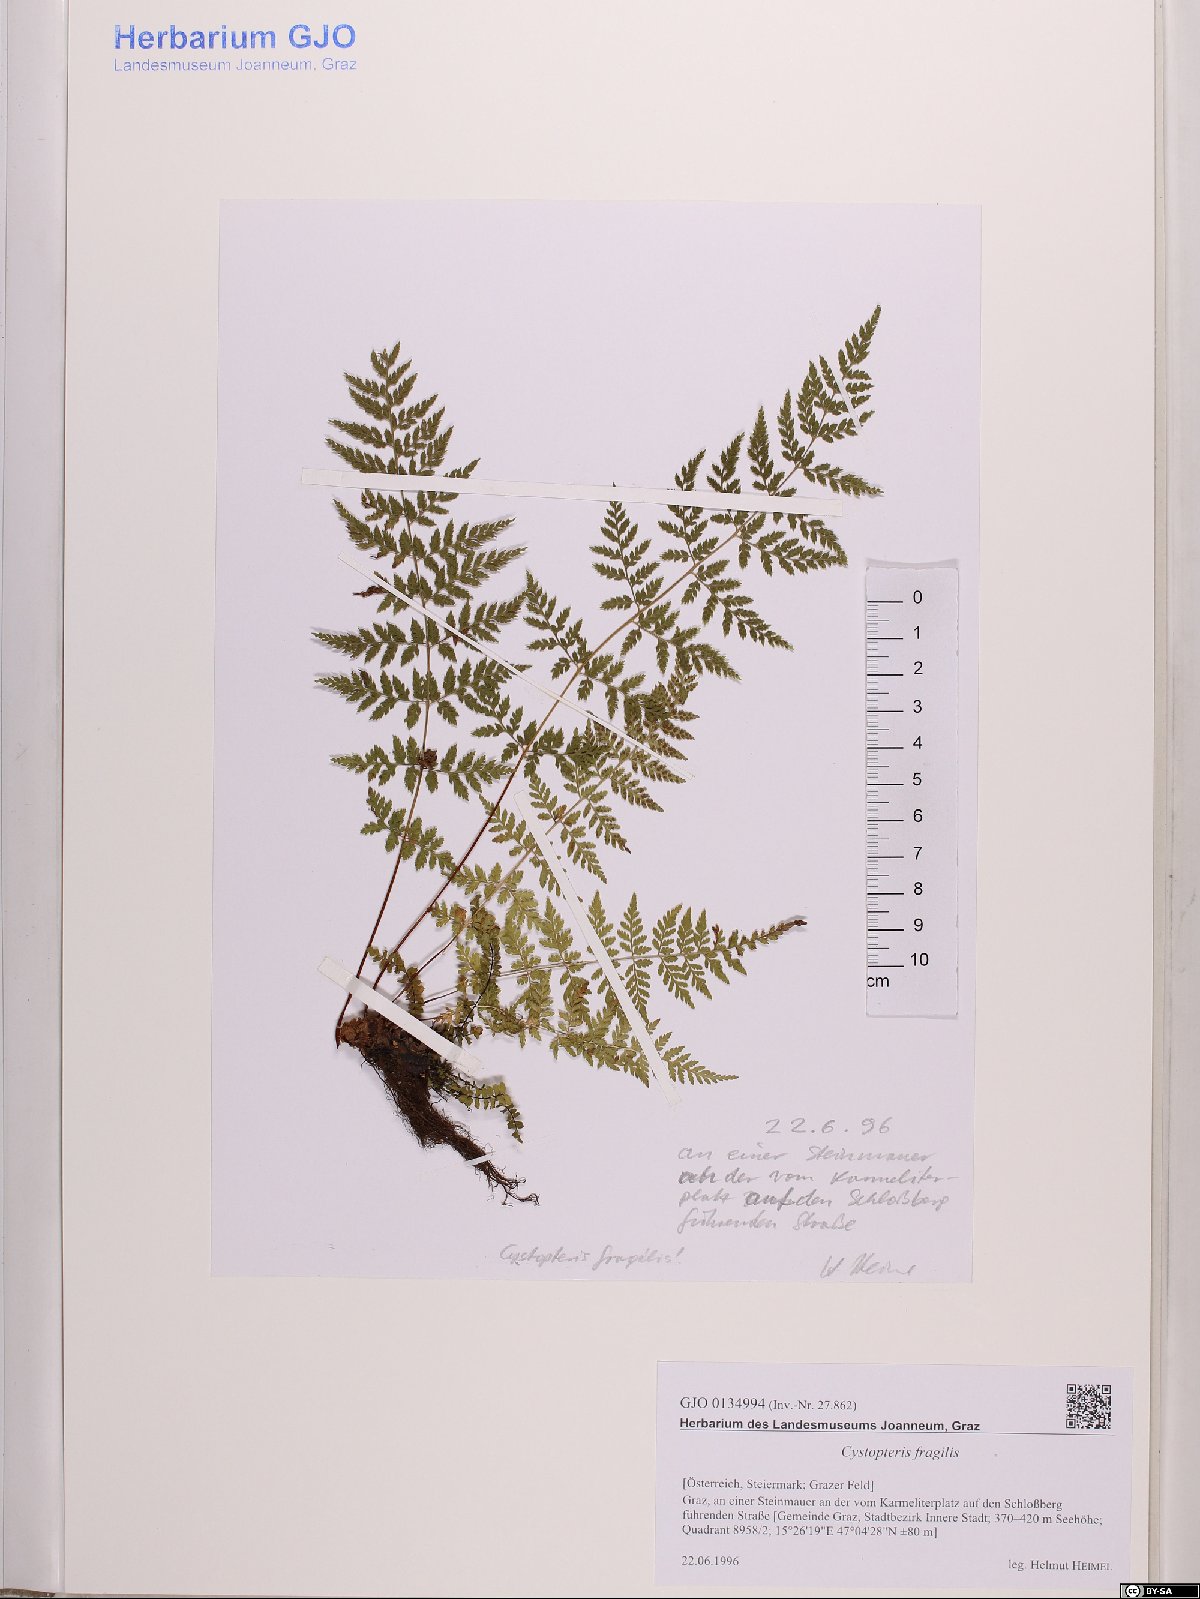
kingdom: Plantae
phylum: Tracheophyta
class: Polypodiopsida
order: Polypodiales
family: Cystopteridaceae
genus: Cystopteris
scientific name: Cystopteris fragilis
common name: Brittle bladder fern
